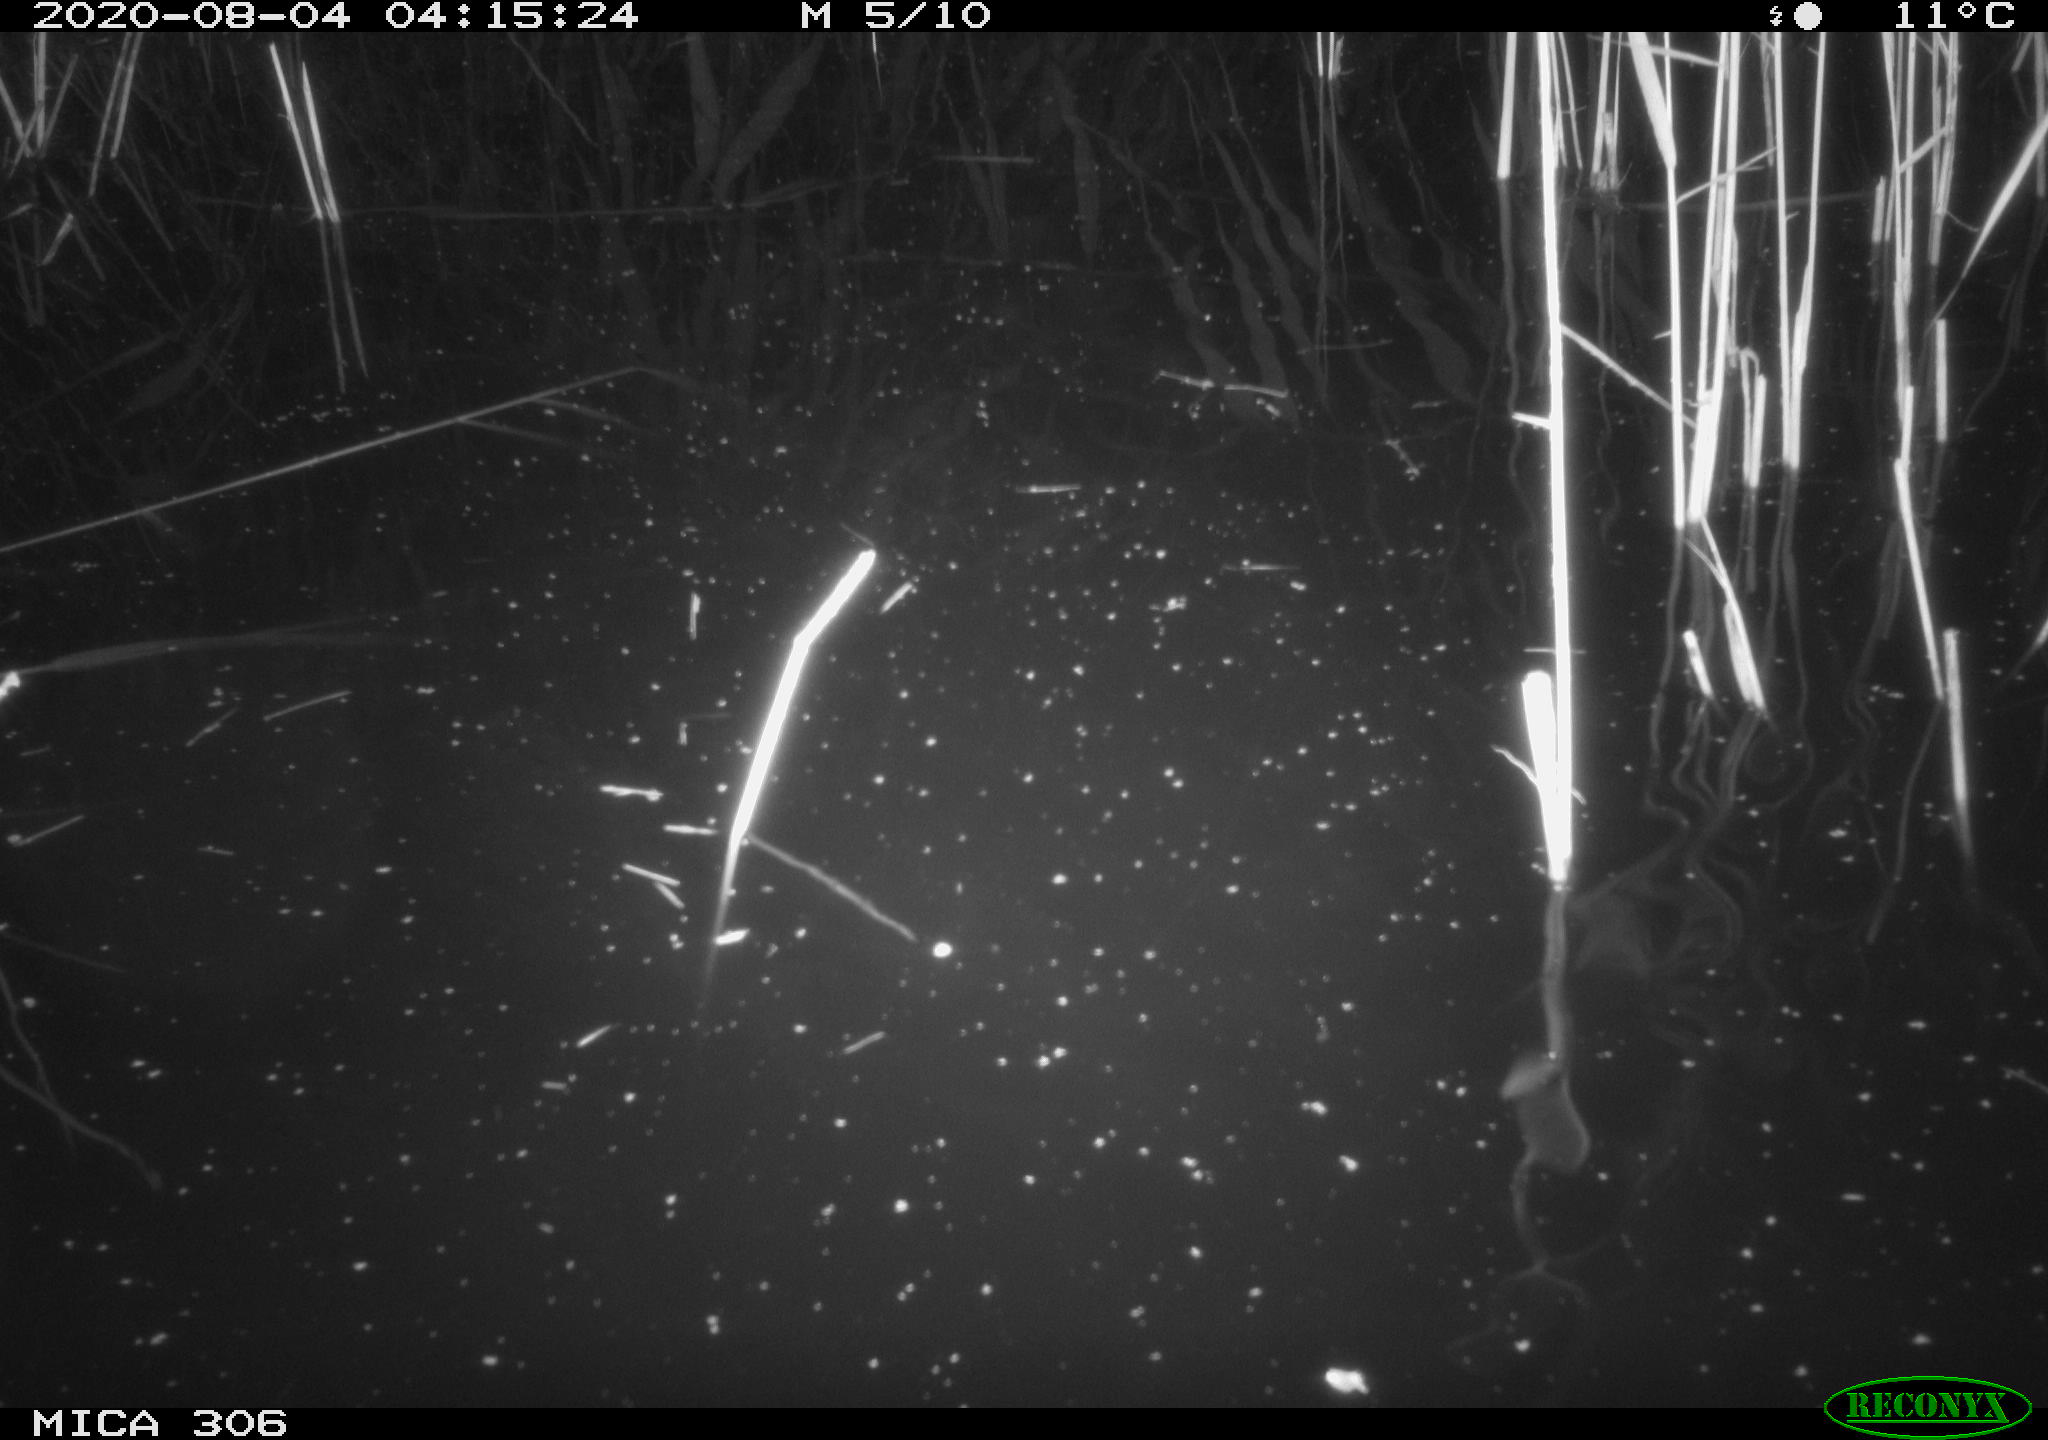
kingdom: Animalia
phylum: Chordata
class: Mammalia
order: Rodentia
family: Cricetidae
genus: Ondatra
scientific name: Ondatra zibethicus
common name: Muskrat
